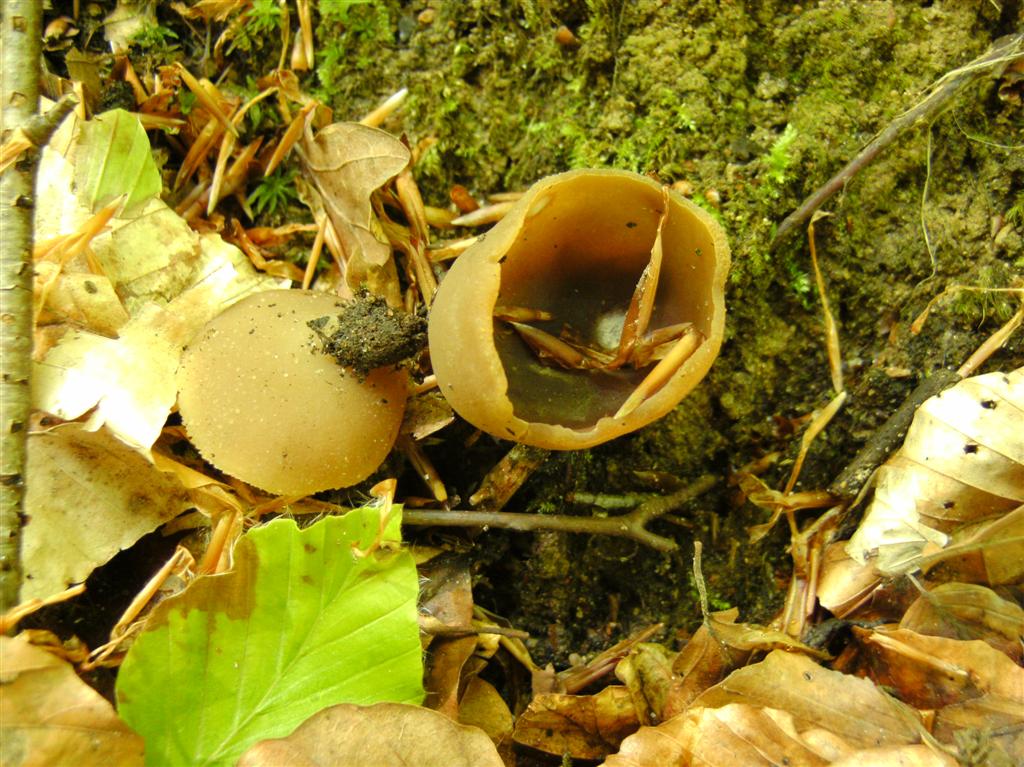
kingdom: Fungi
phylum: Ascomycota
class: Pezizomycetes
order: Pezizales
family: Pezizaceae
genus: Peziza
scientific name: Peziza arvernensis
